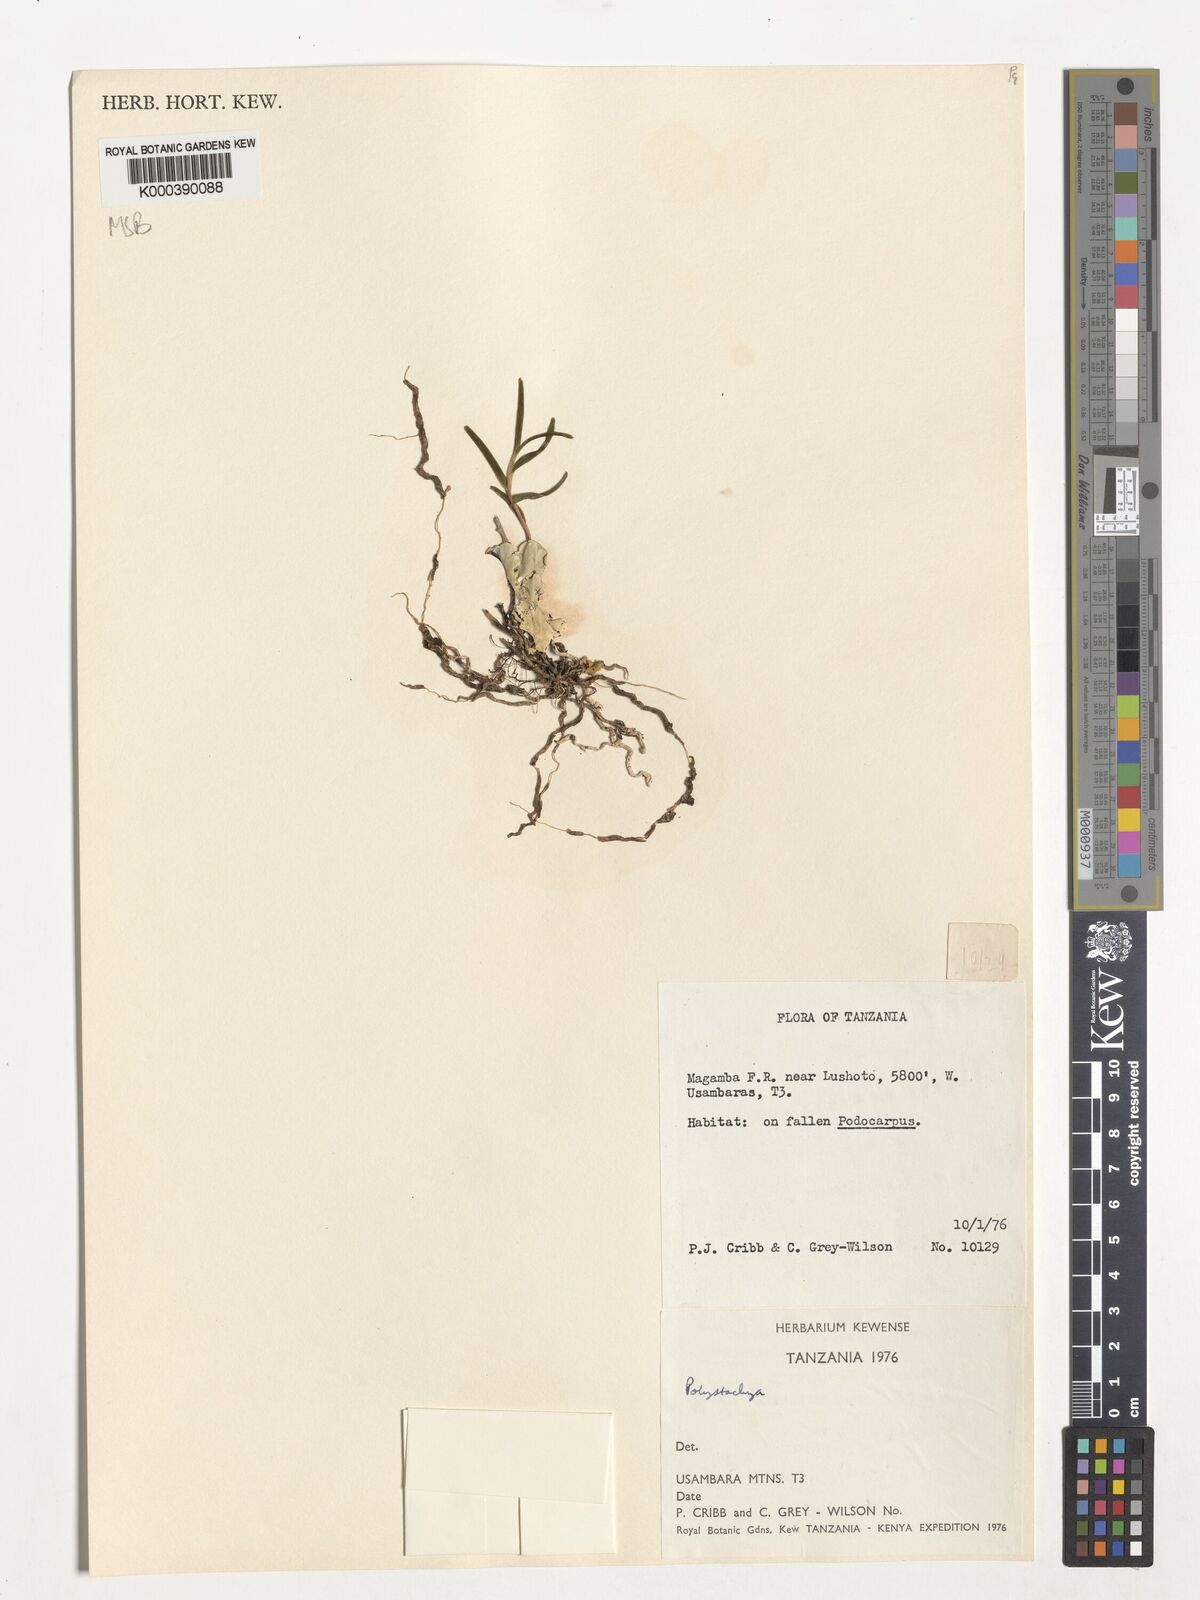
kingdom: Plantae
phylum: Tracheophyta
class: Liliopsida
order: Asparagales
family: Orchidaceae
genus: Polystachya
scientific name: Polystachya pudorina
